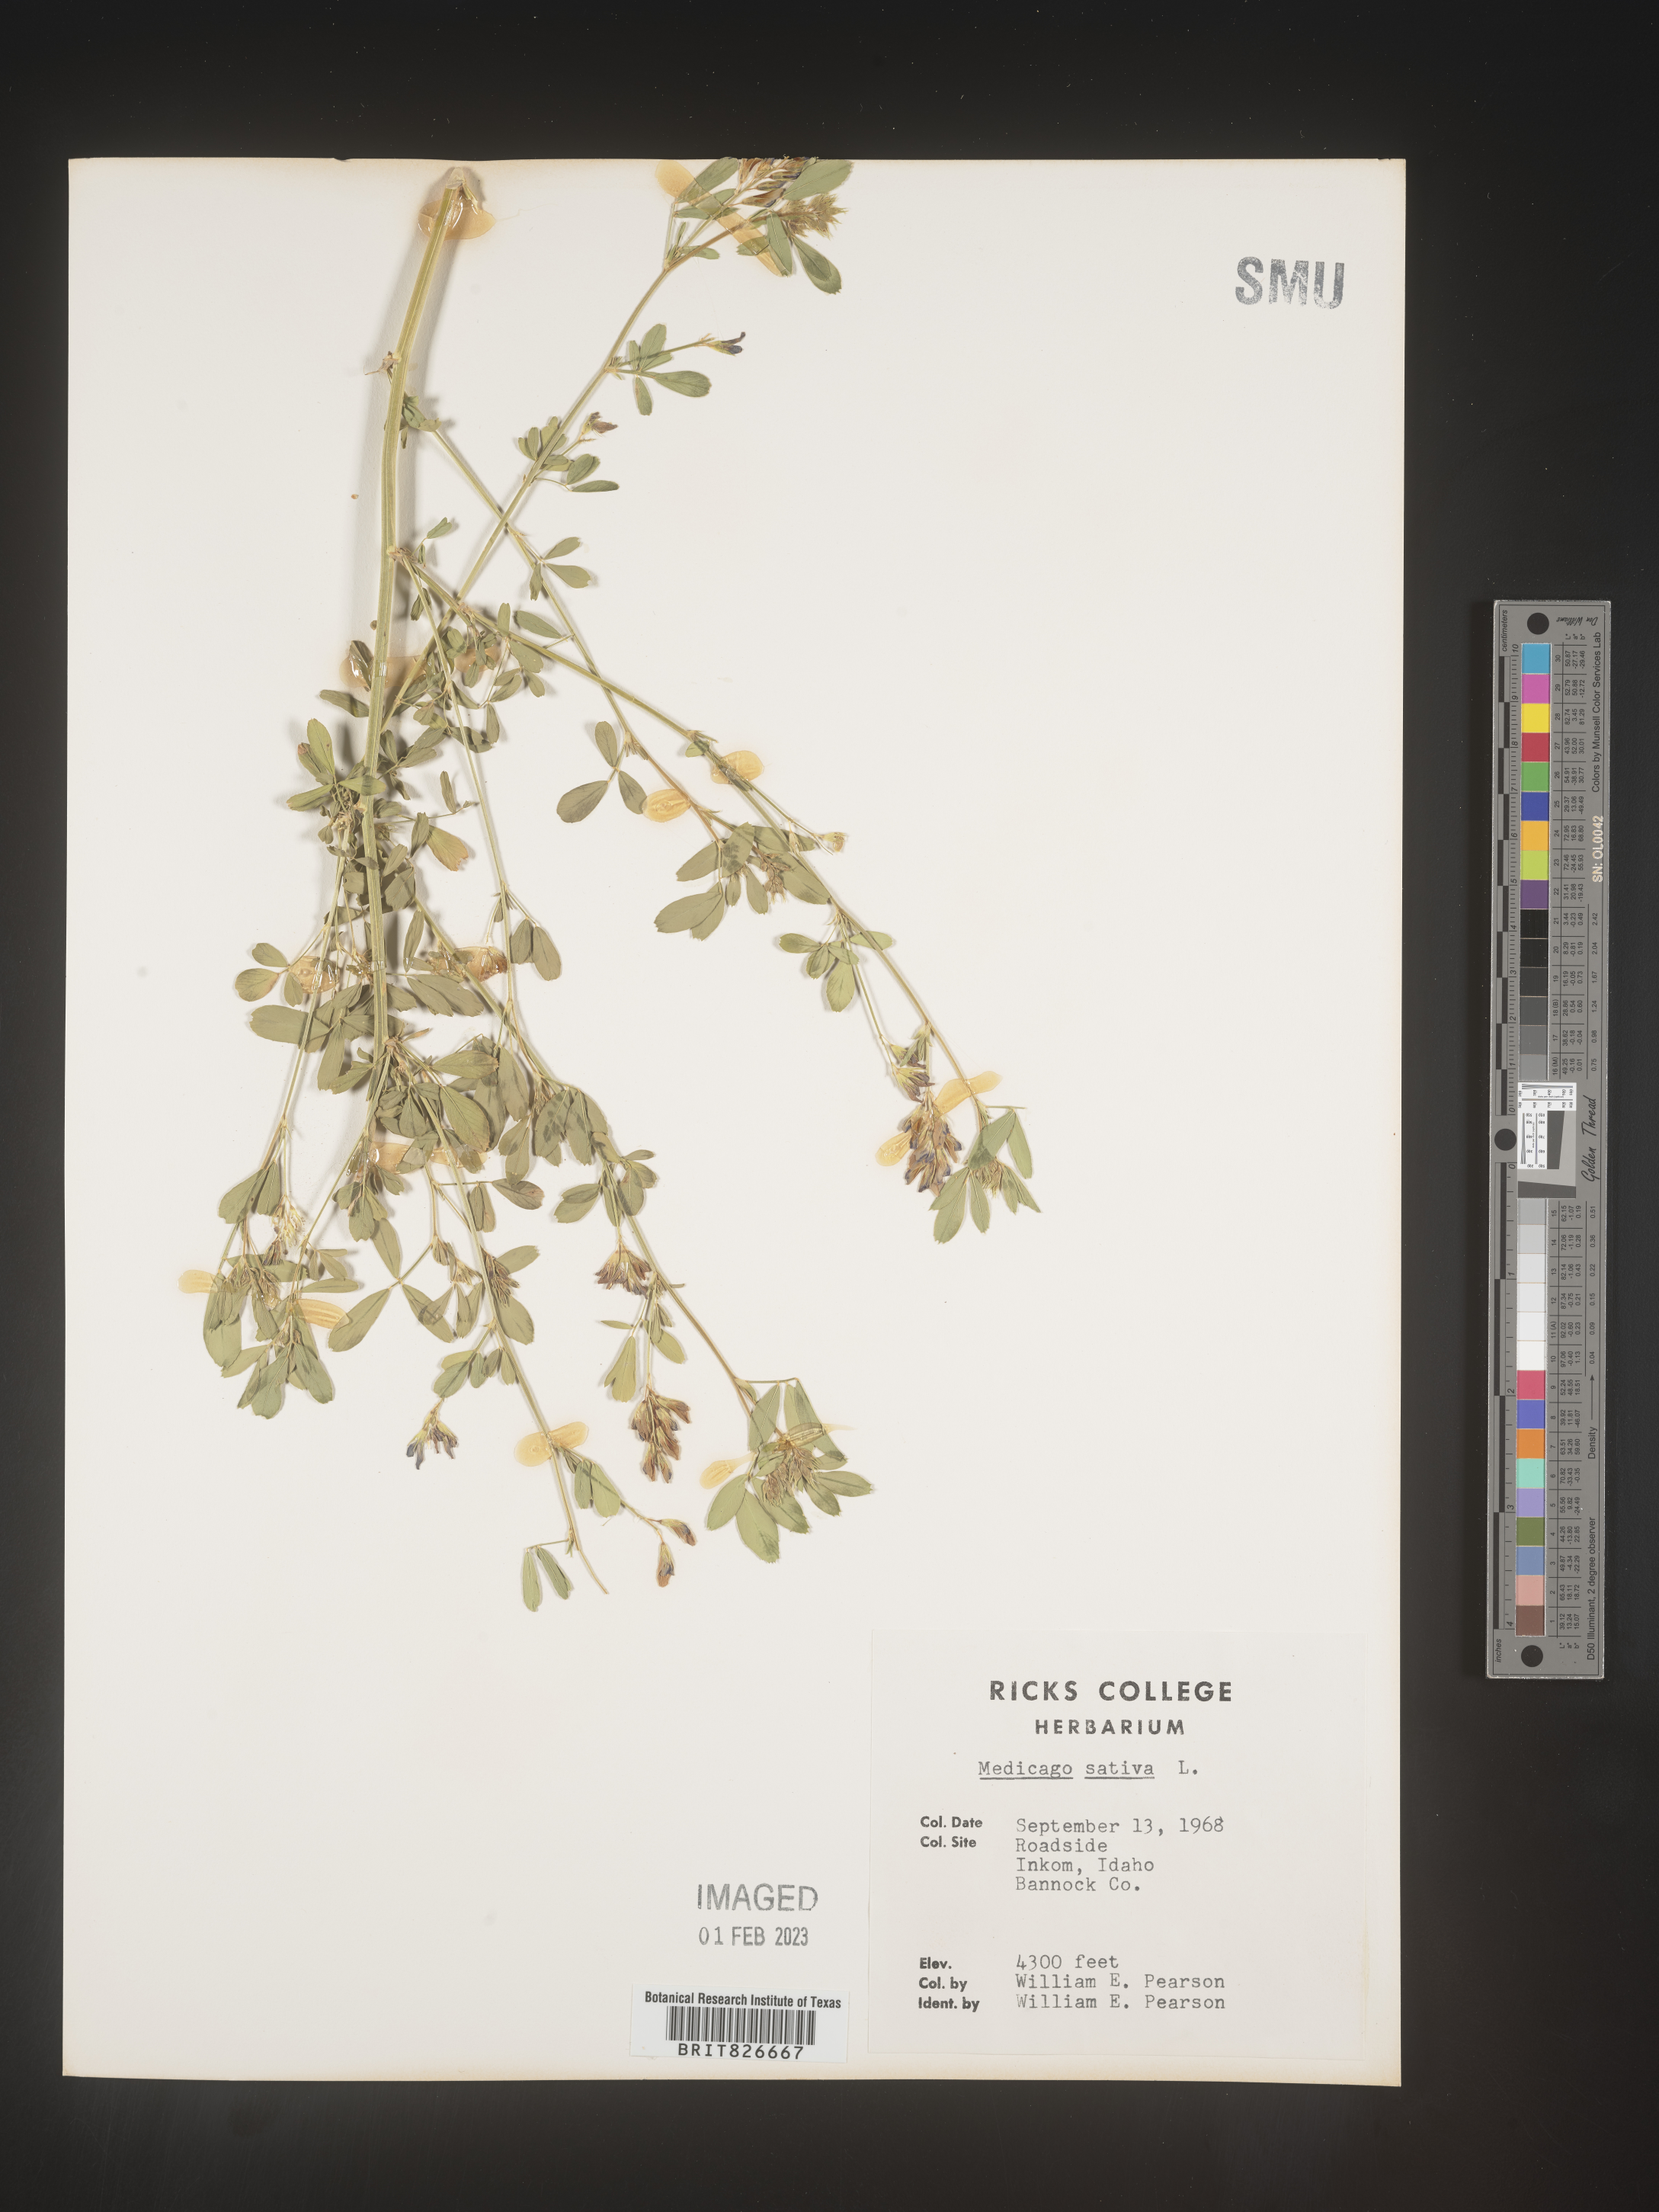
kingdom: Plantae
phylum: Tracheophyta
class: Magnoliopsida
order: Fabales
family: Fabaceae
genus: Medicago
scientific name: Medicago sativa
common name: Alfalfa
